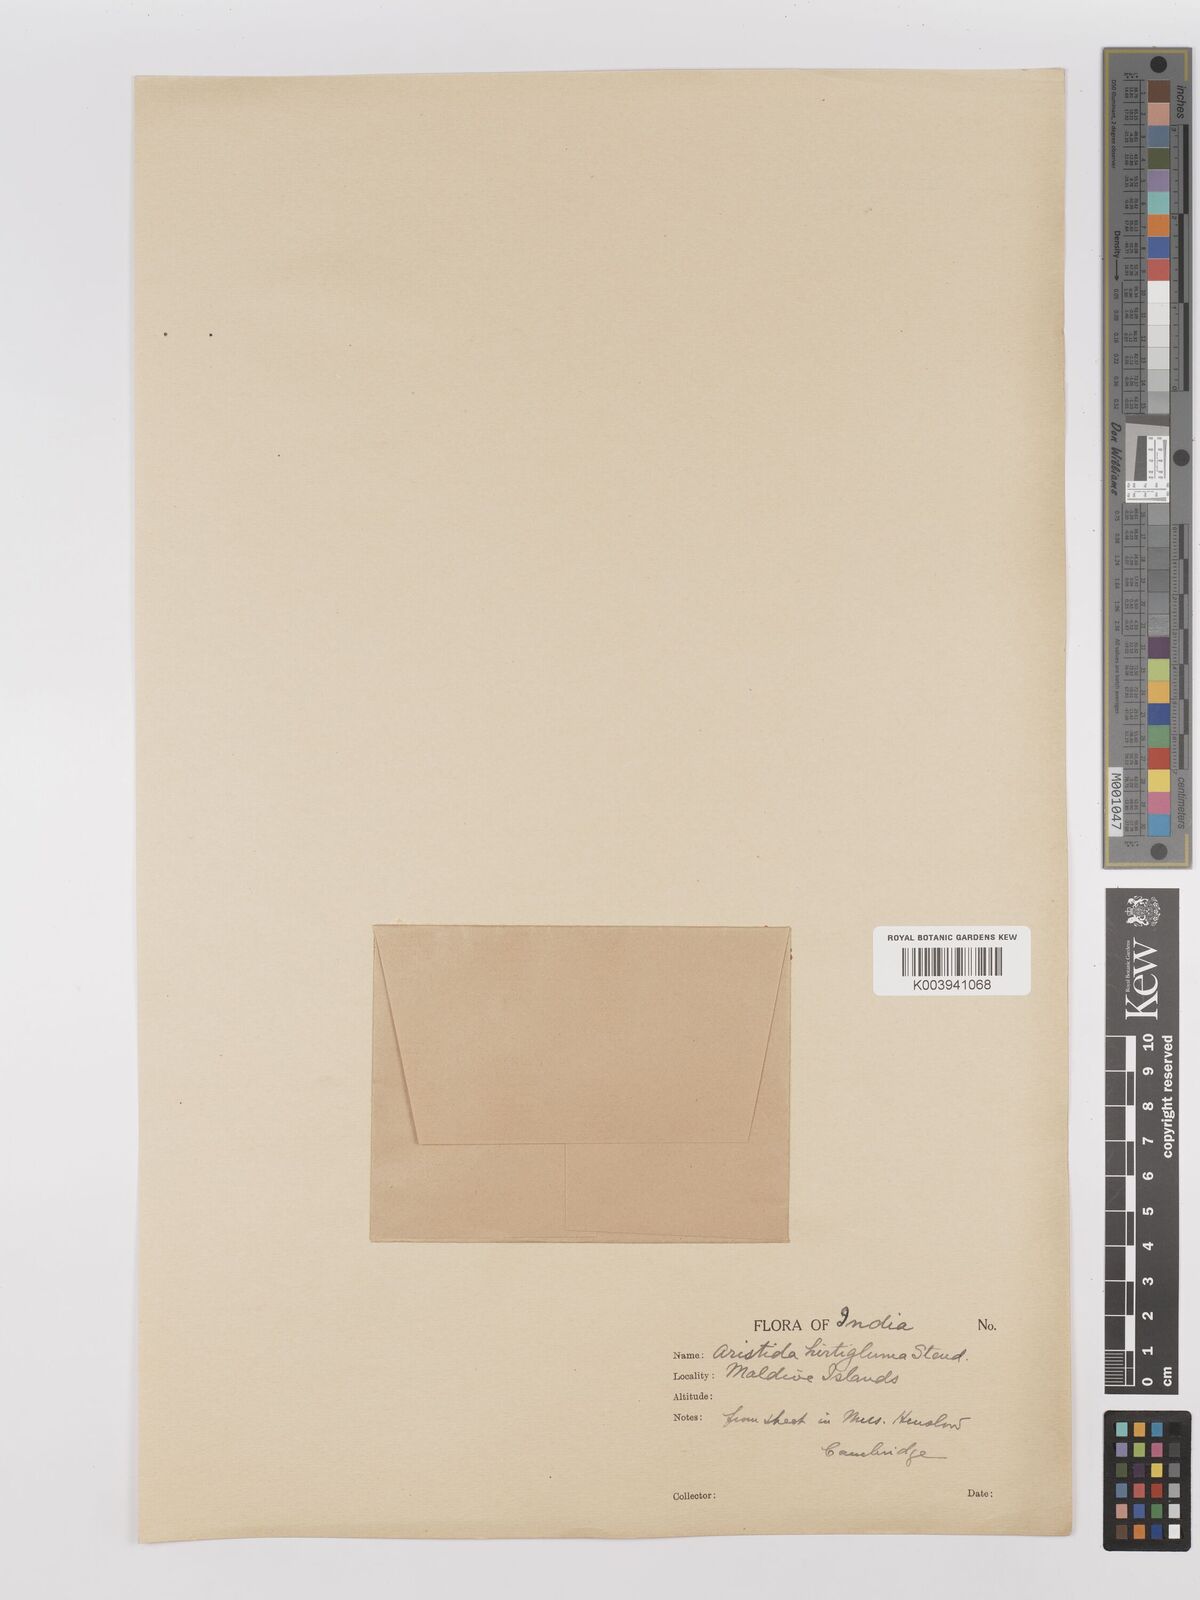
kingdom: Plantae
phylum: Tracheophyta
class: Liliopsida
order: Poales
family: Poaceae
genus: Stipagrostis
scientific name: Stipagrostis hirtigluma
